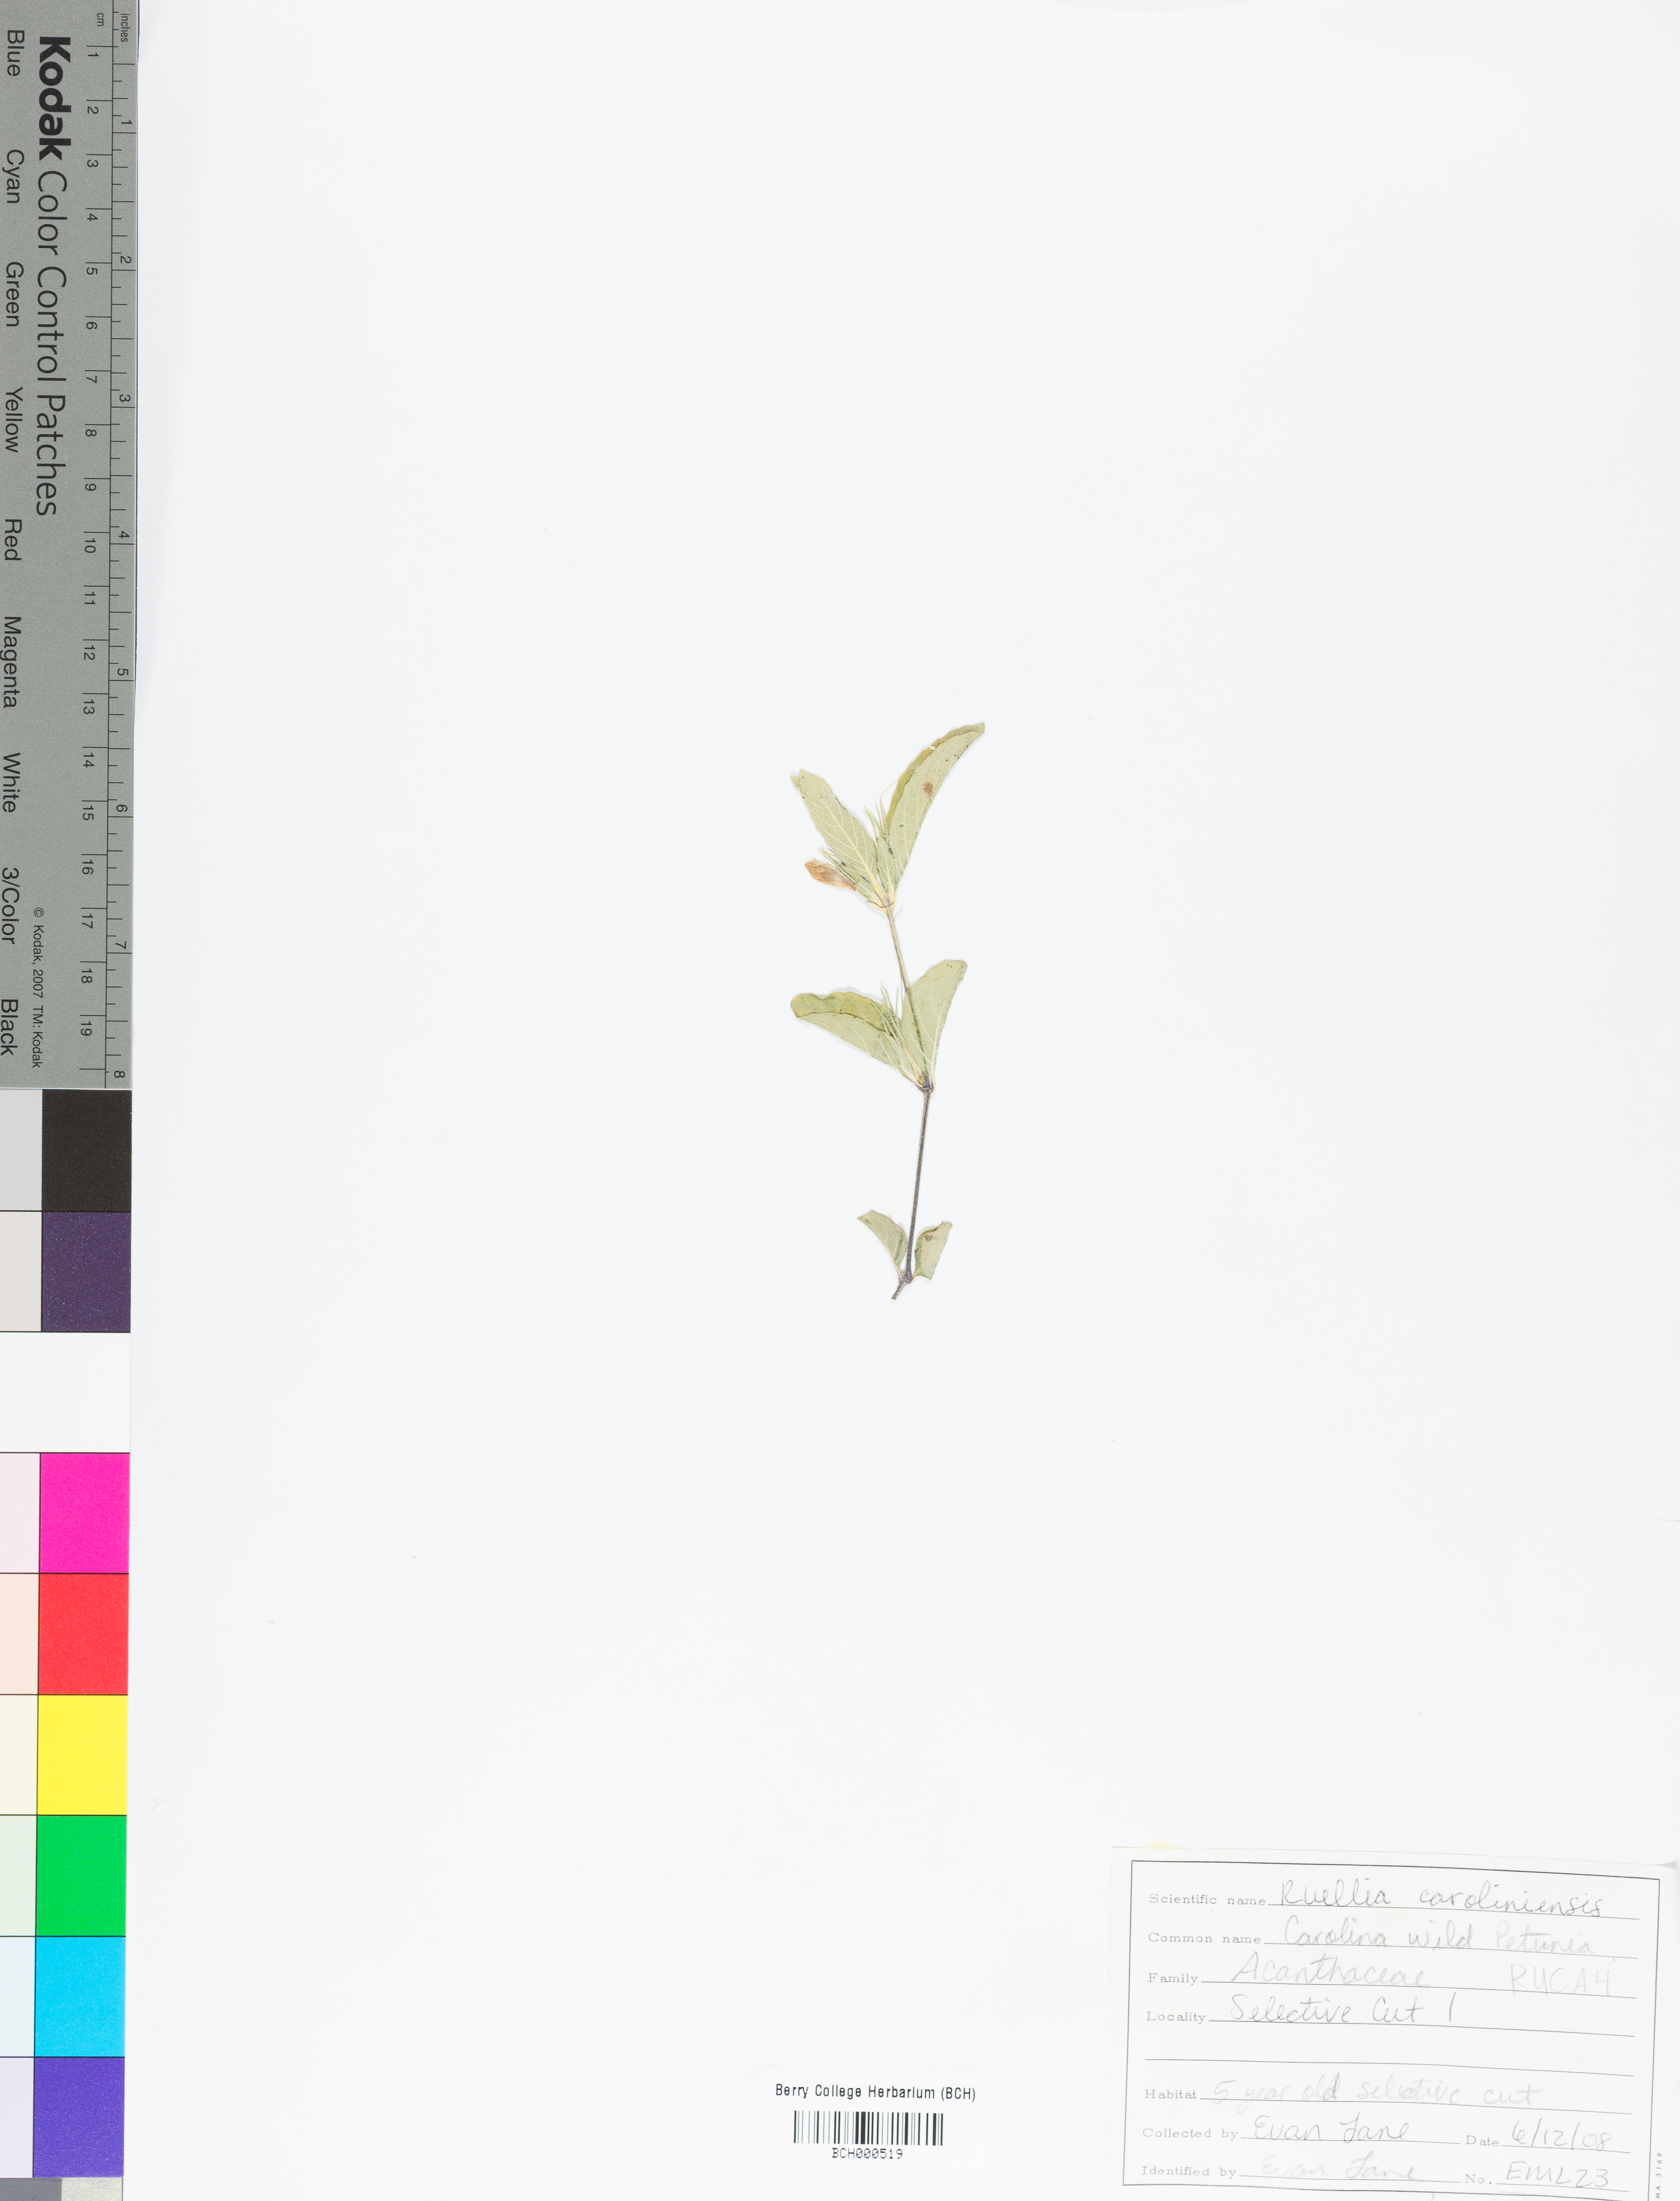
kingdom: Plantae
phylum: Tracheophyta
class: Magnoliopsida
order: Lamiales
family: Acanthaceae
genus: Ruellia
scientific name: Ruellia caroliniensis
